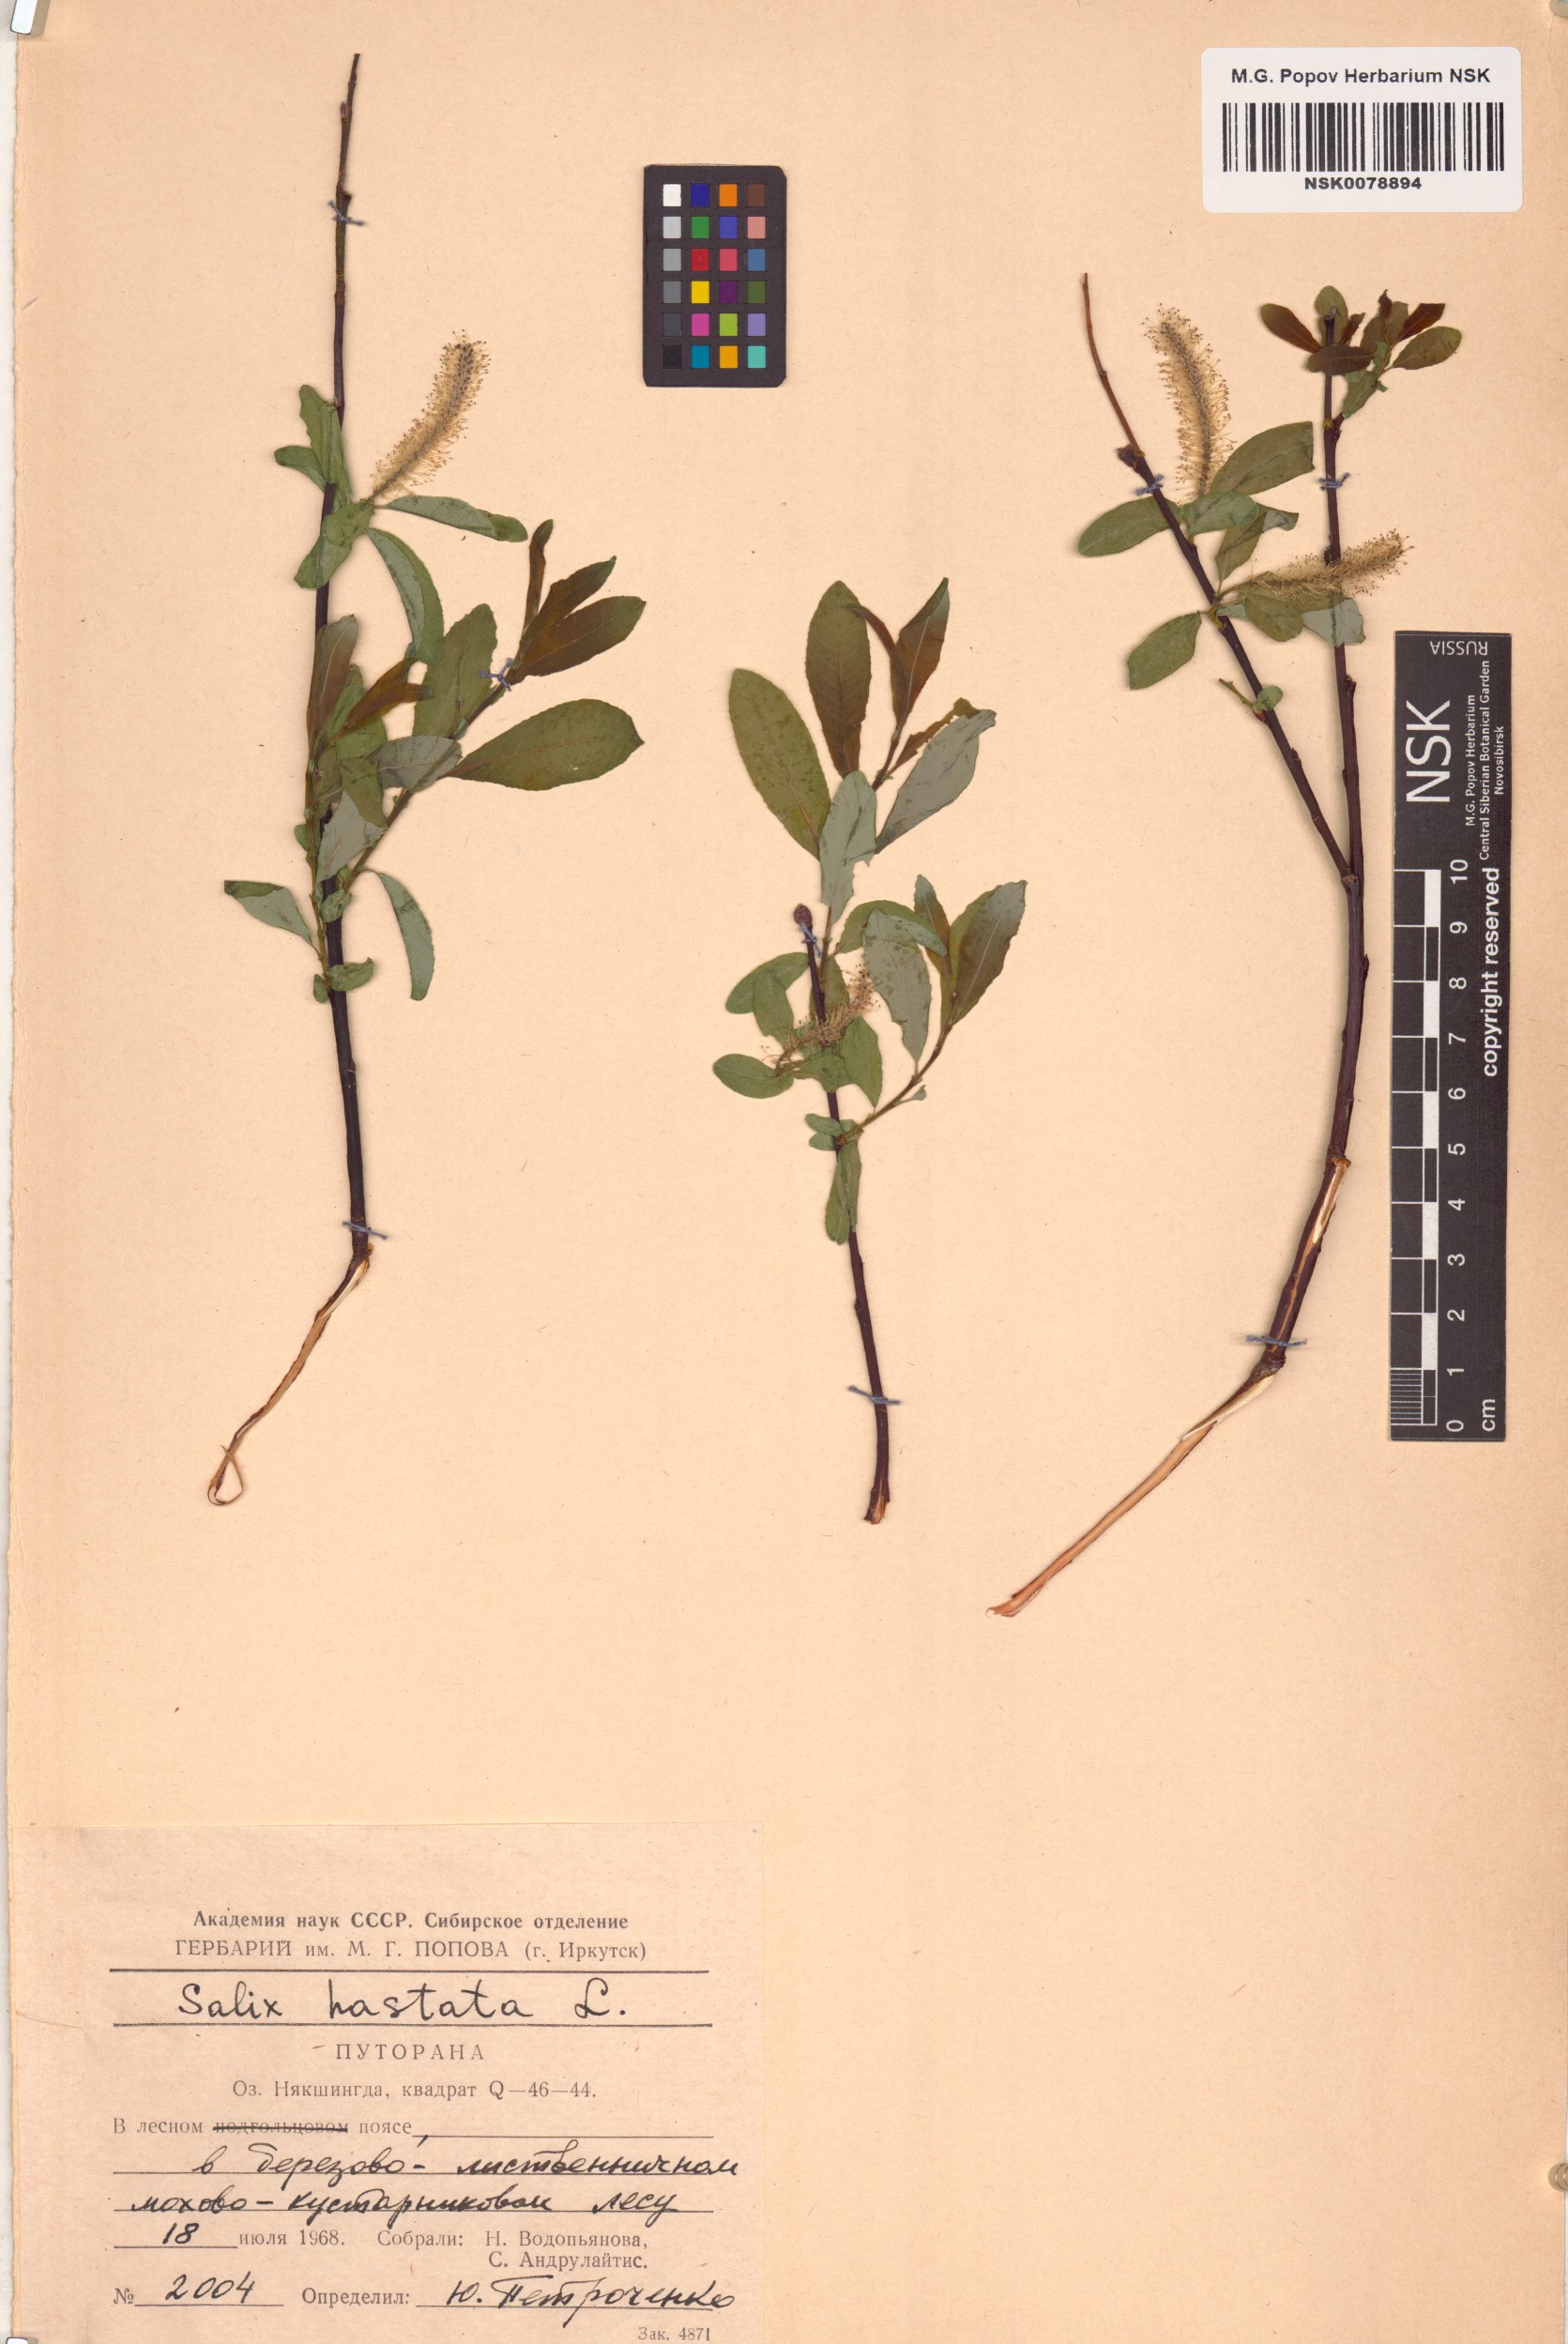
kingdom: Plantae
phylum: Tracheophyta
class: Magnoliopsida
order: Malpighiales
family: Salicaceae
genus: Salix
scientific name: Salix hastata
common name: Halberd willow
